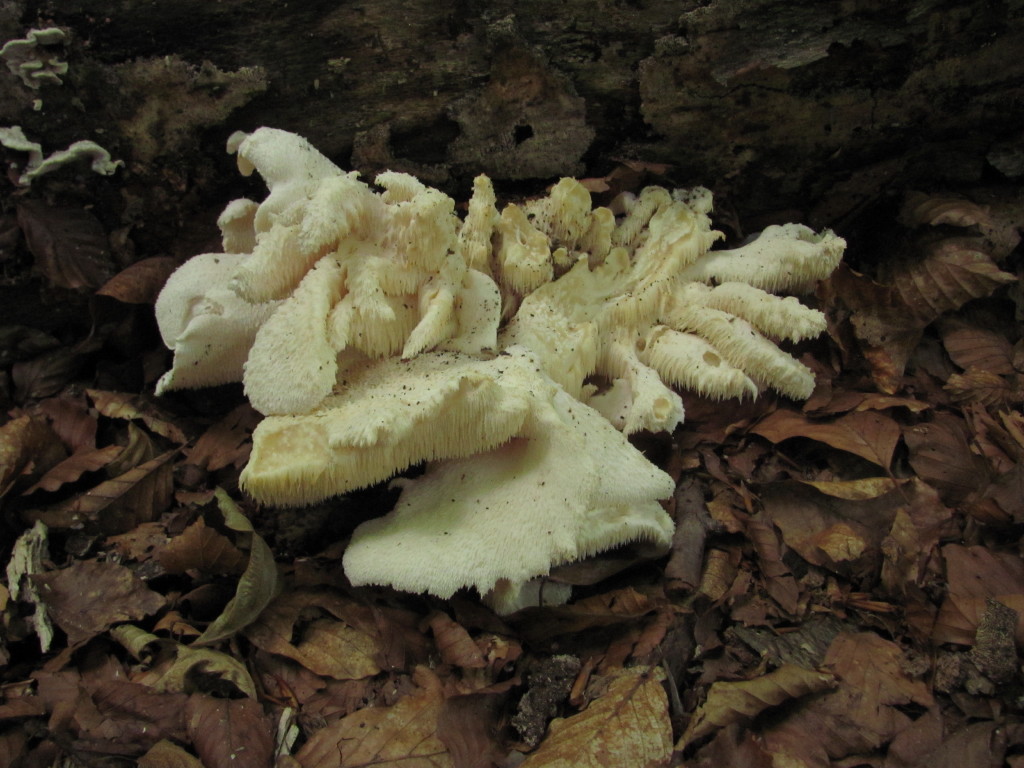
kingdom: Fungi
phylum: Basidiomycota
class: Agaricomycetes
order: Russulales
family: Hericiaceae
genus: Hericium
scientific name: Hericium cirrhatum
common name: børstepigsvamp
